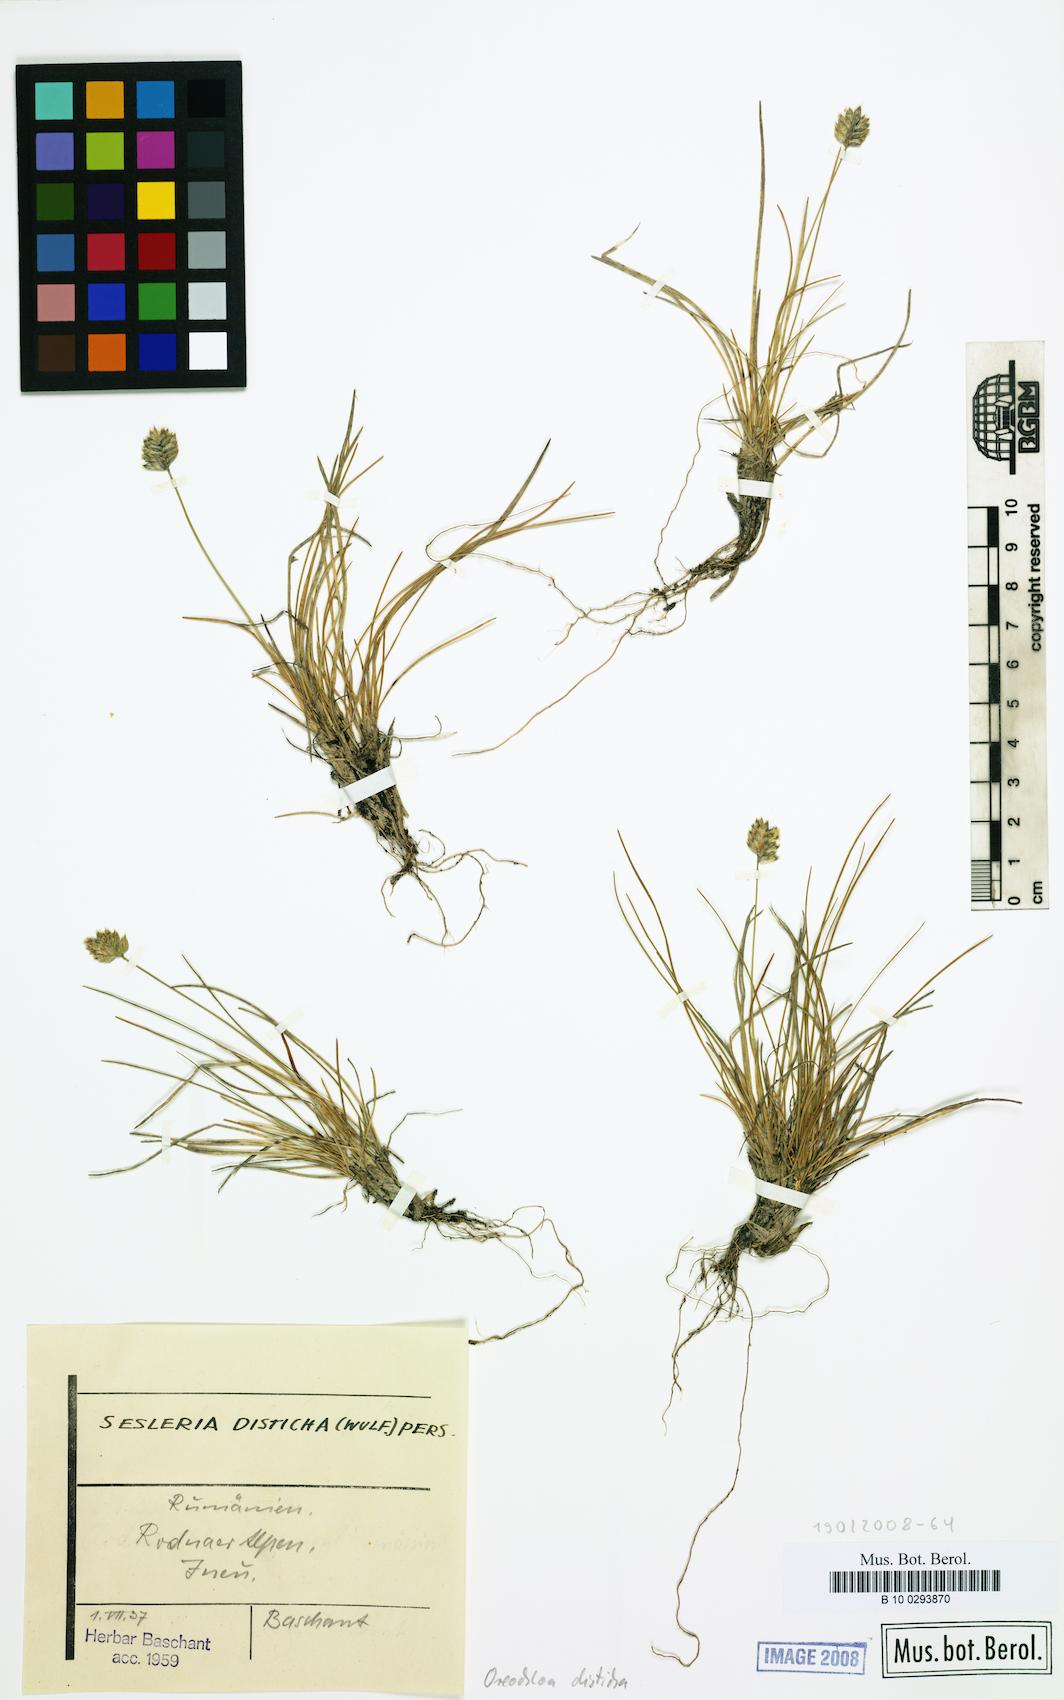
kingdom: Plantae
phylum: Tracheophyta
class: Liliopsida
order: Poales
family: Poaceae
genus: Oreochloa
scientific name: Oreochloa disticha
